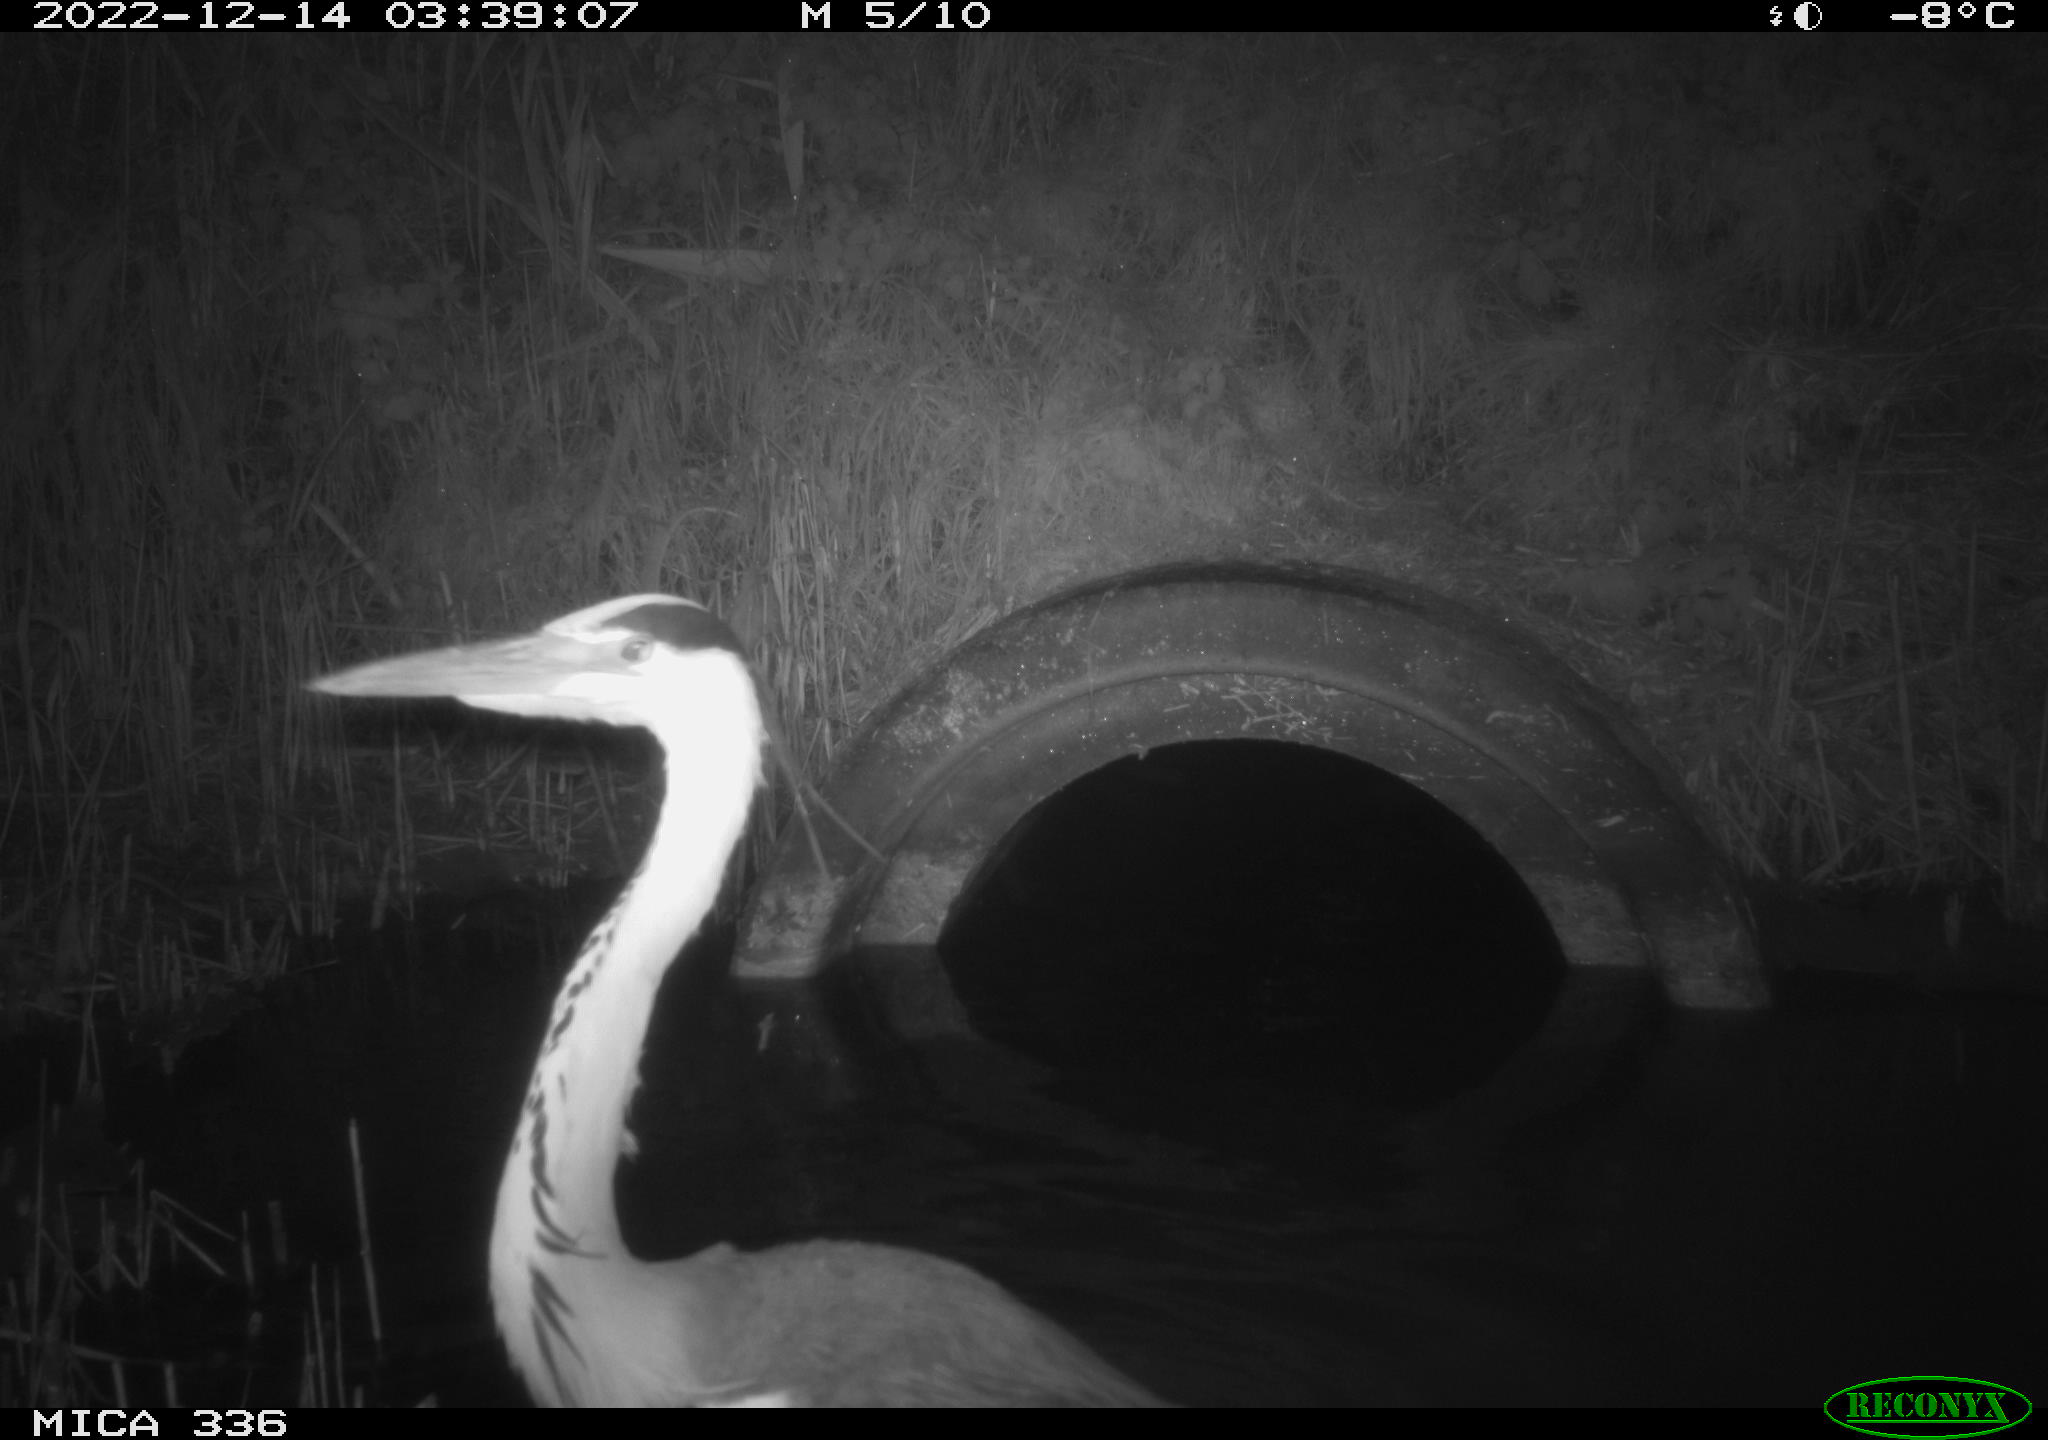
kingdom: Animalia
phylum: Chordata
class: Aves
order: Pelecaniformes
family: Ardeidae
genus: Ardea
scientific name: Ardea cinerea
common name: Grey heron
